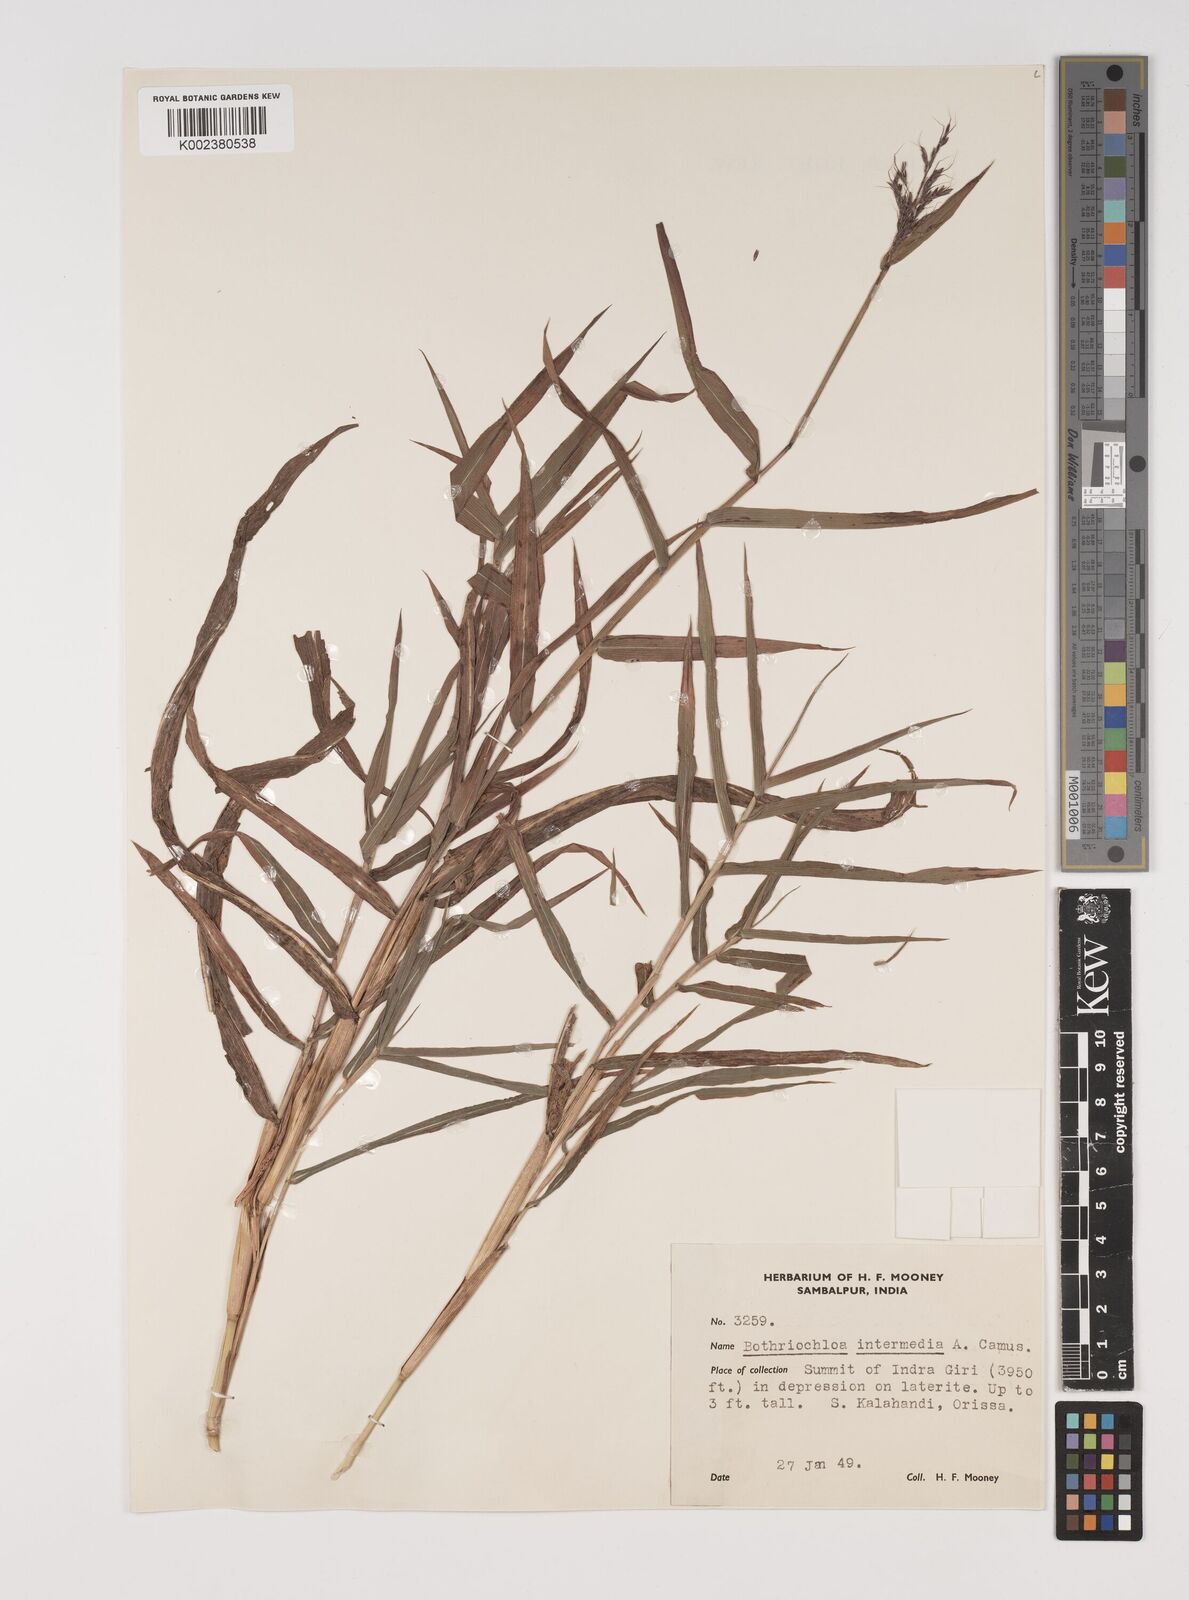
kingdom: Plantae
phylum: Tracheophyta
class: Liliopsida
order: Poales
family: Poaceae
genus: Bothriochloa
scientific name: Bothriochloa bladhii
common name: Caucasian bluestem
